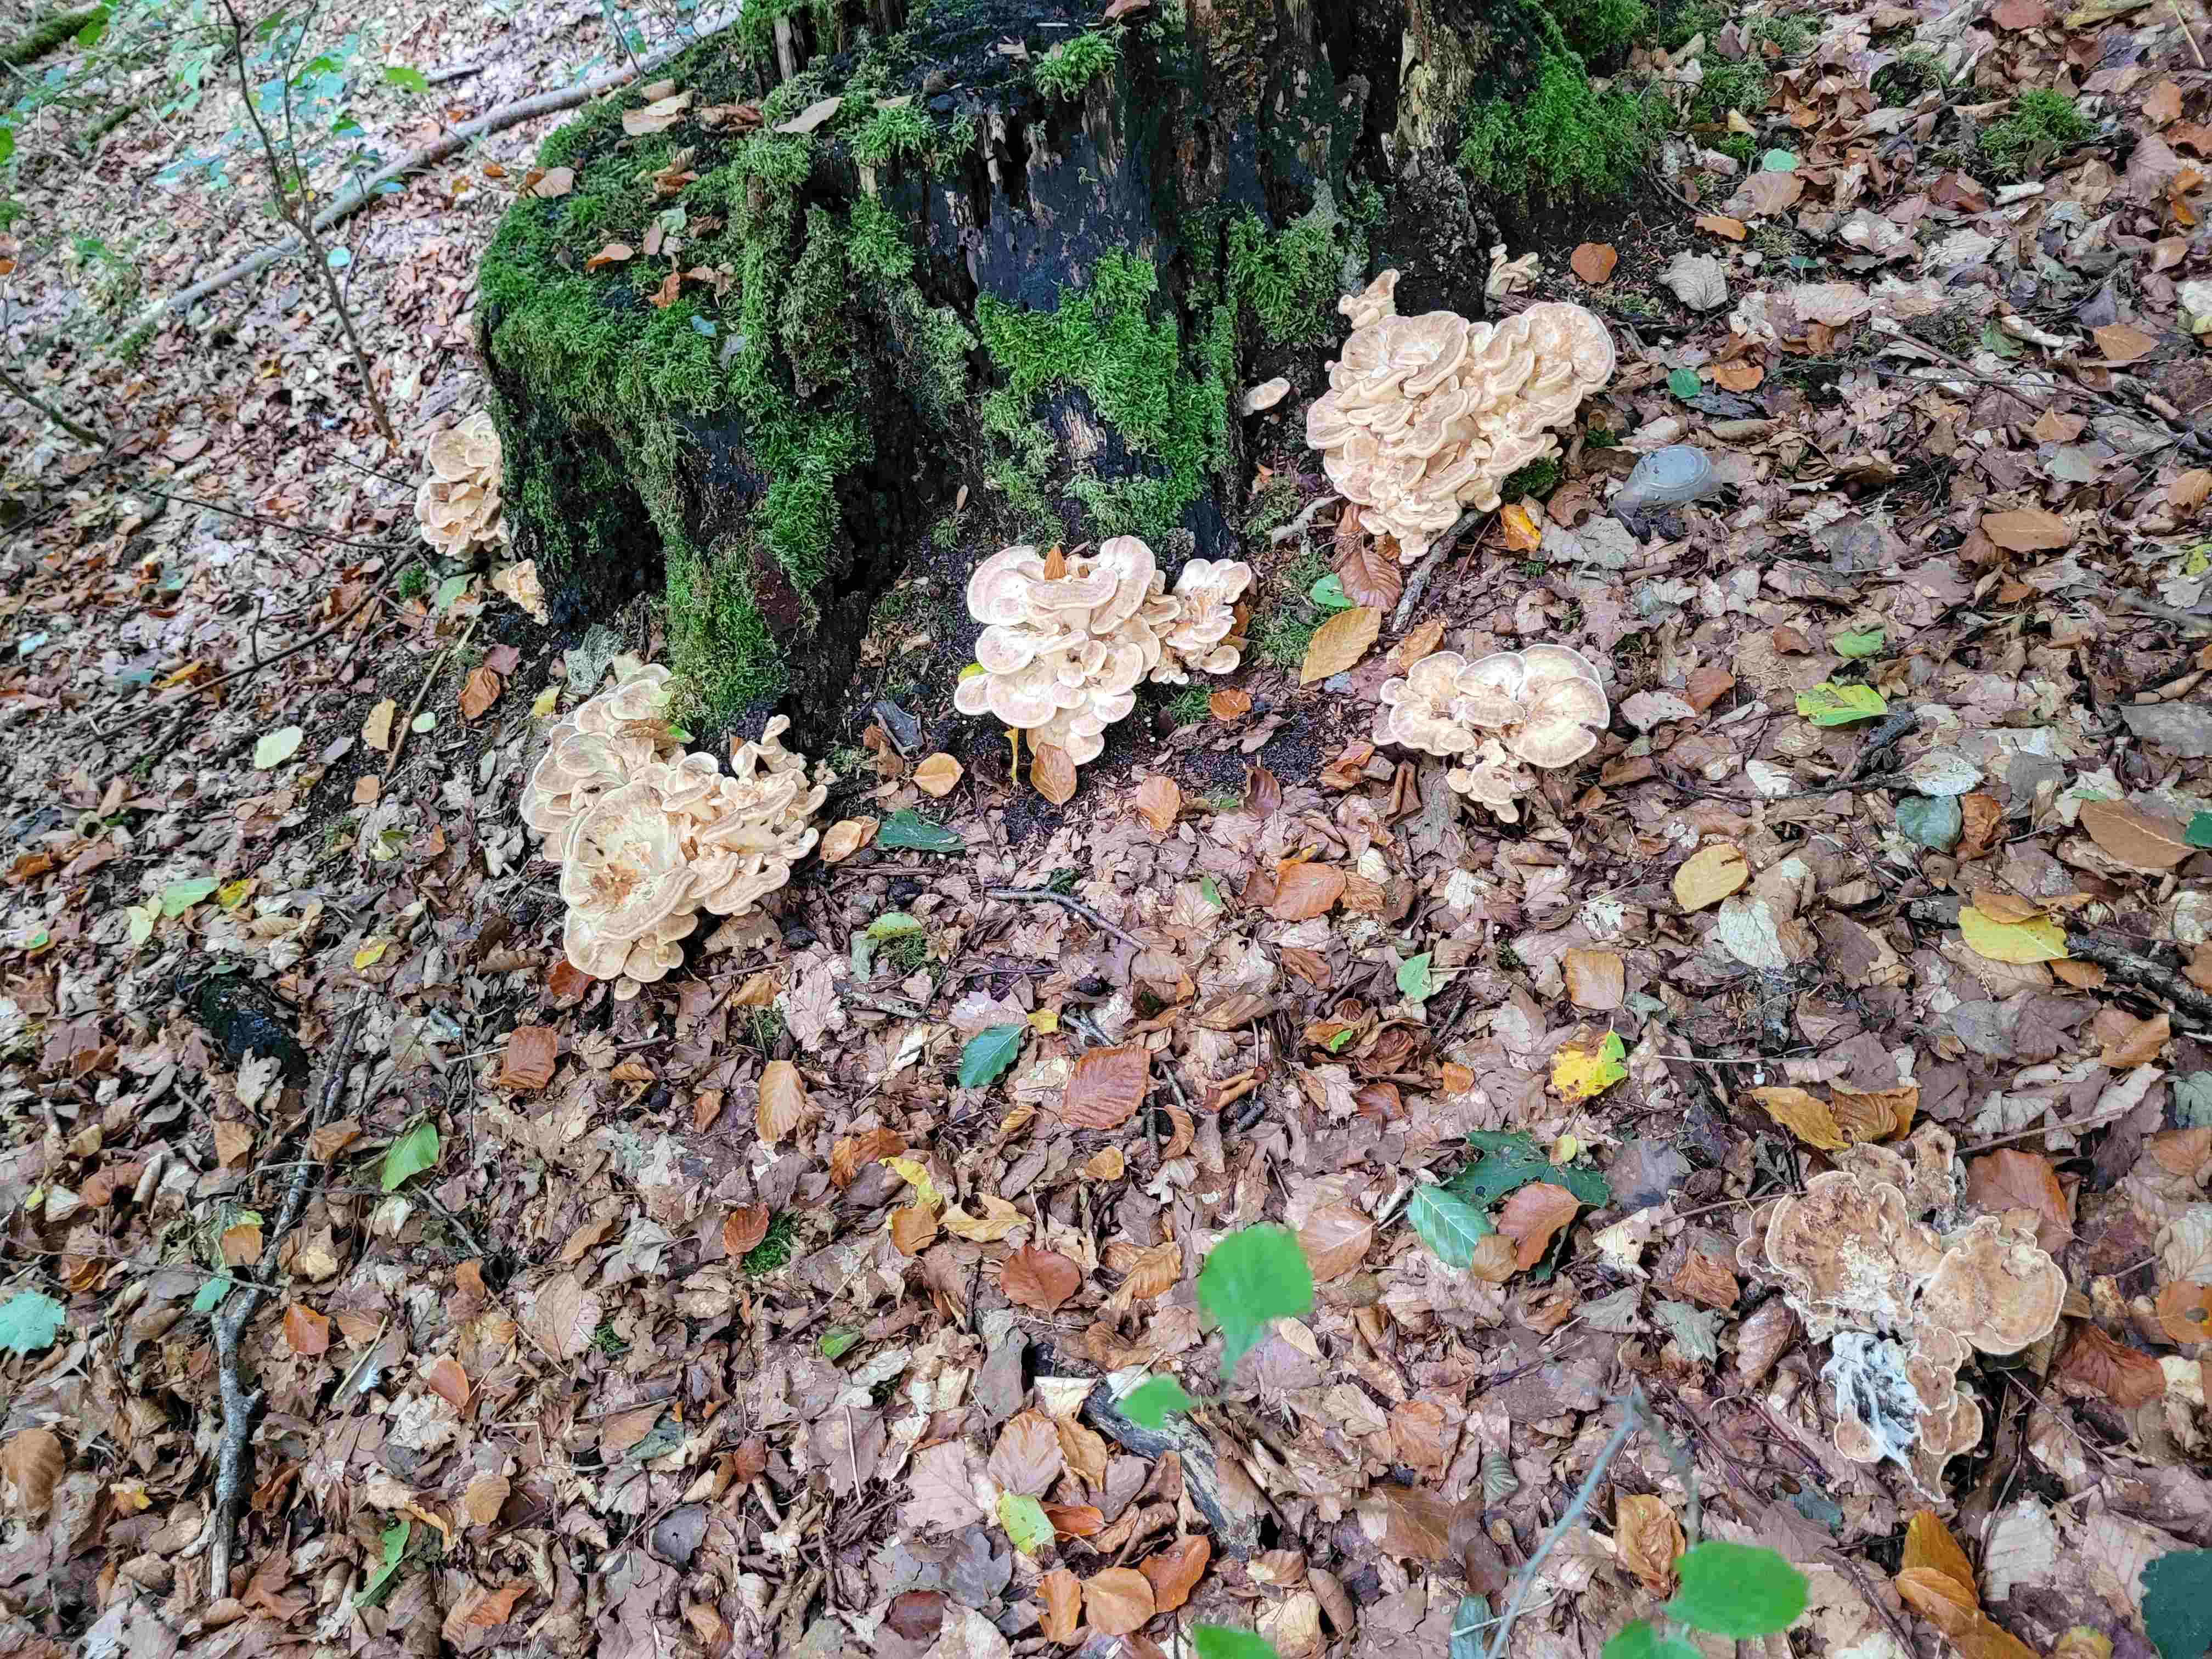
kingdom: Fungi
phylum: Basidiomycota
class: Agaricomycetes
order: Polyporales
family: Meripilaceae
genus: Meripilus
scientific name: Meripilus giganteus
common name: kæmpeporesvamp
